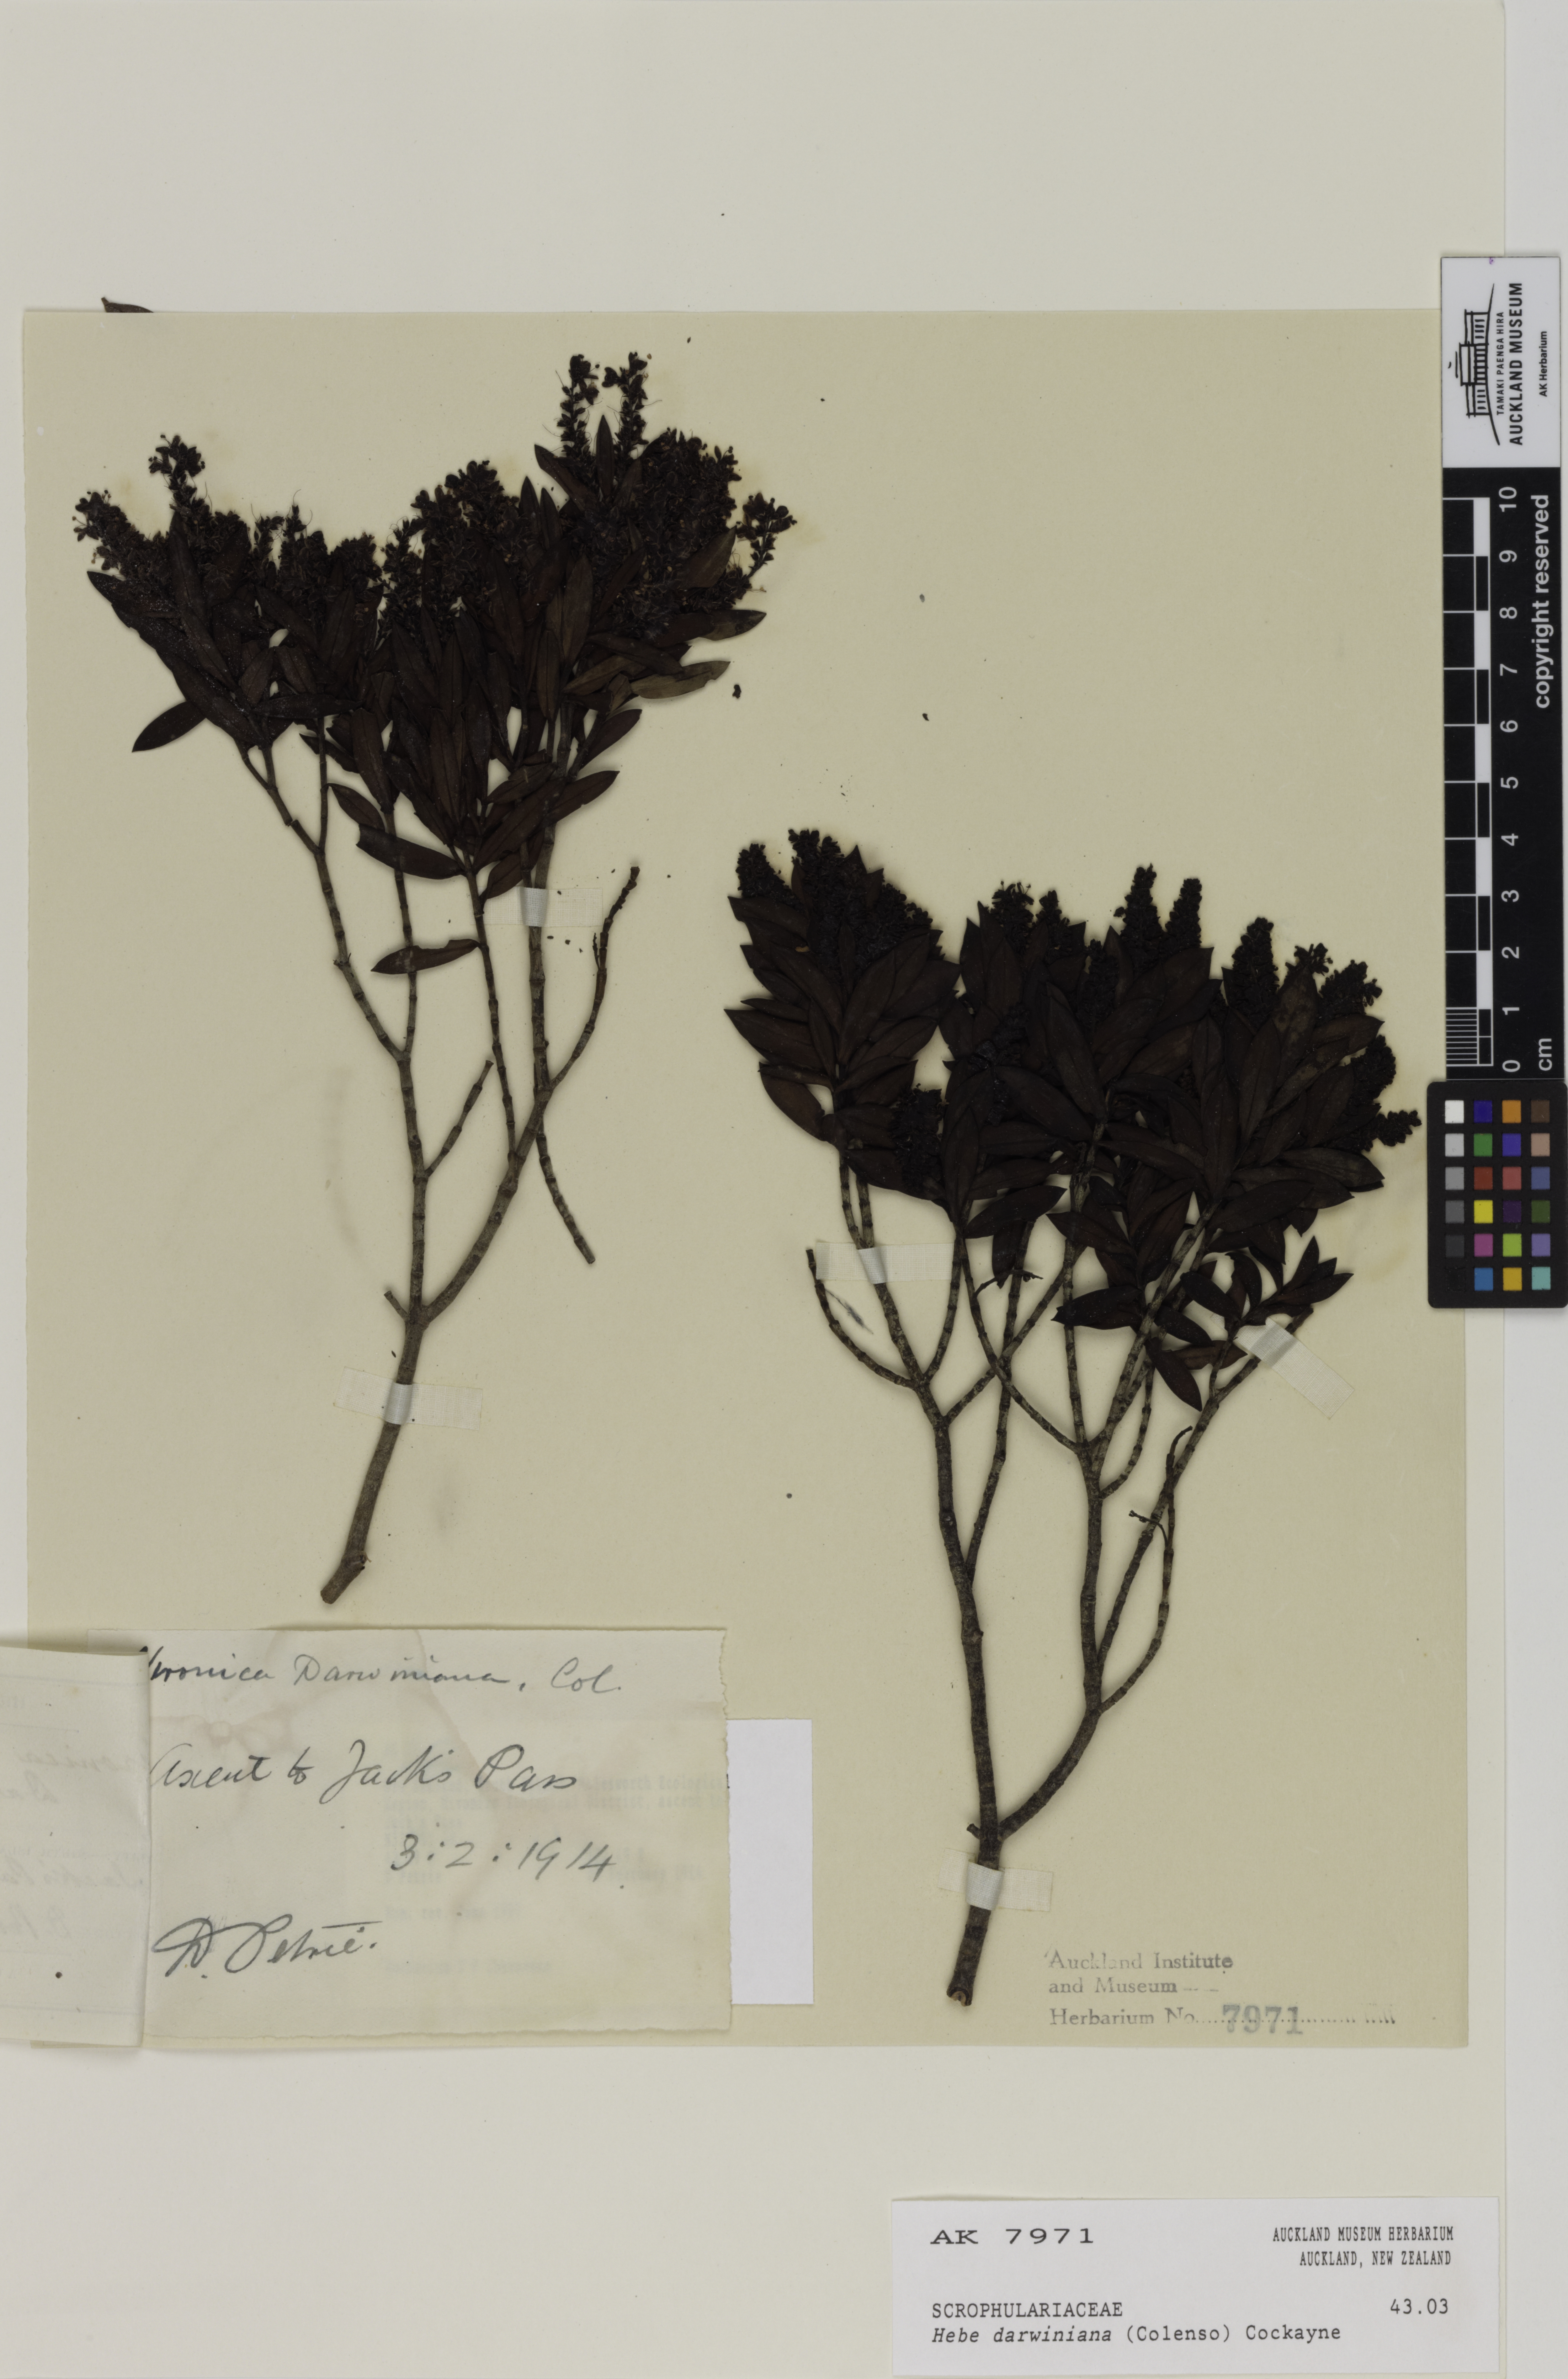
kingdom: Plantae
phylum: Tracheophyta
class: Magnoliopsida
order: Lamiales
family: Plantaginaceae
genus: Veronica
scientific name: Veronica glaucophylla
